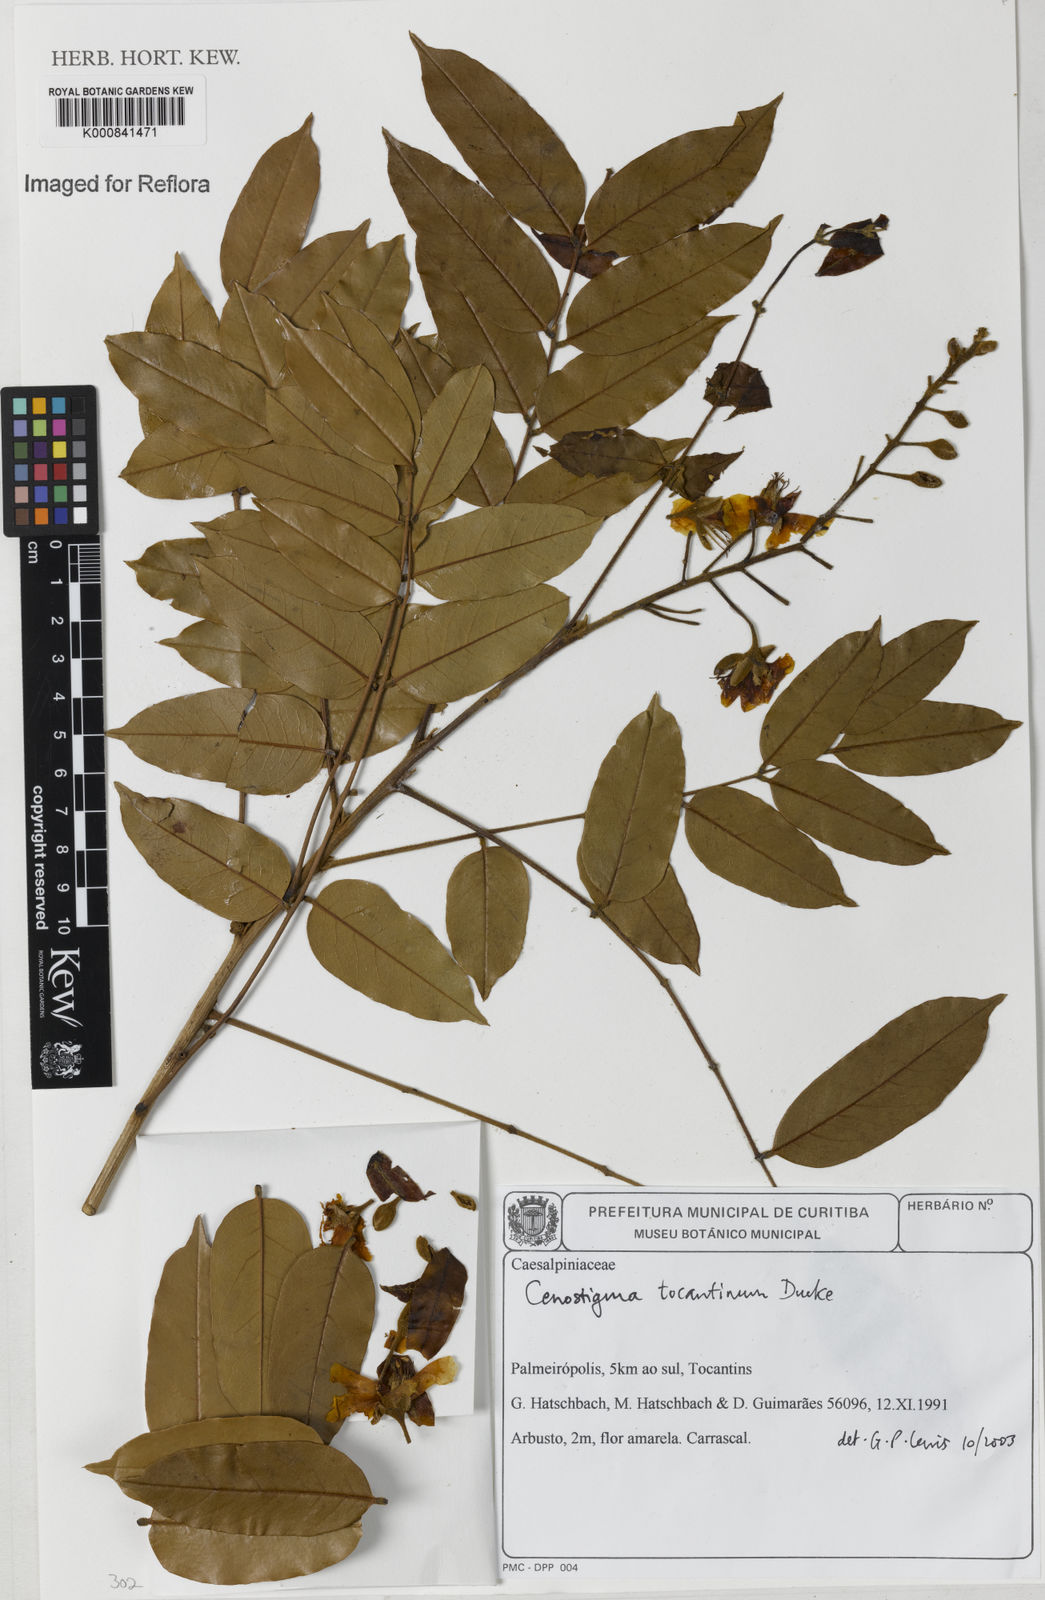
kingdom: Plantae
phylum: Tracheophyta
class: Magnoliopsida
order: Fabales
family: Fabaceae
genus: Cenostigma
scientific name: Cenostigma tocantinum
